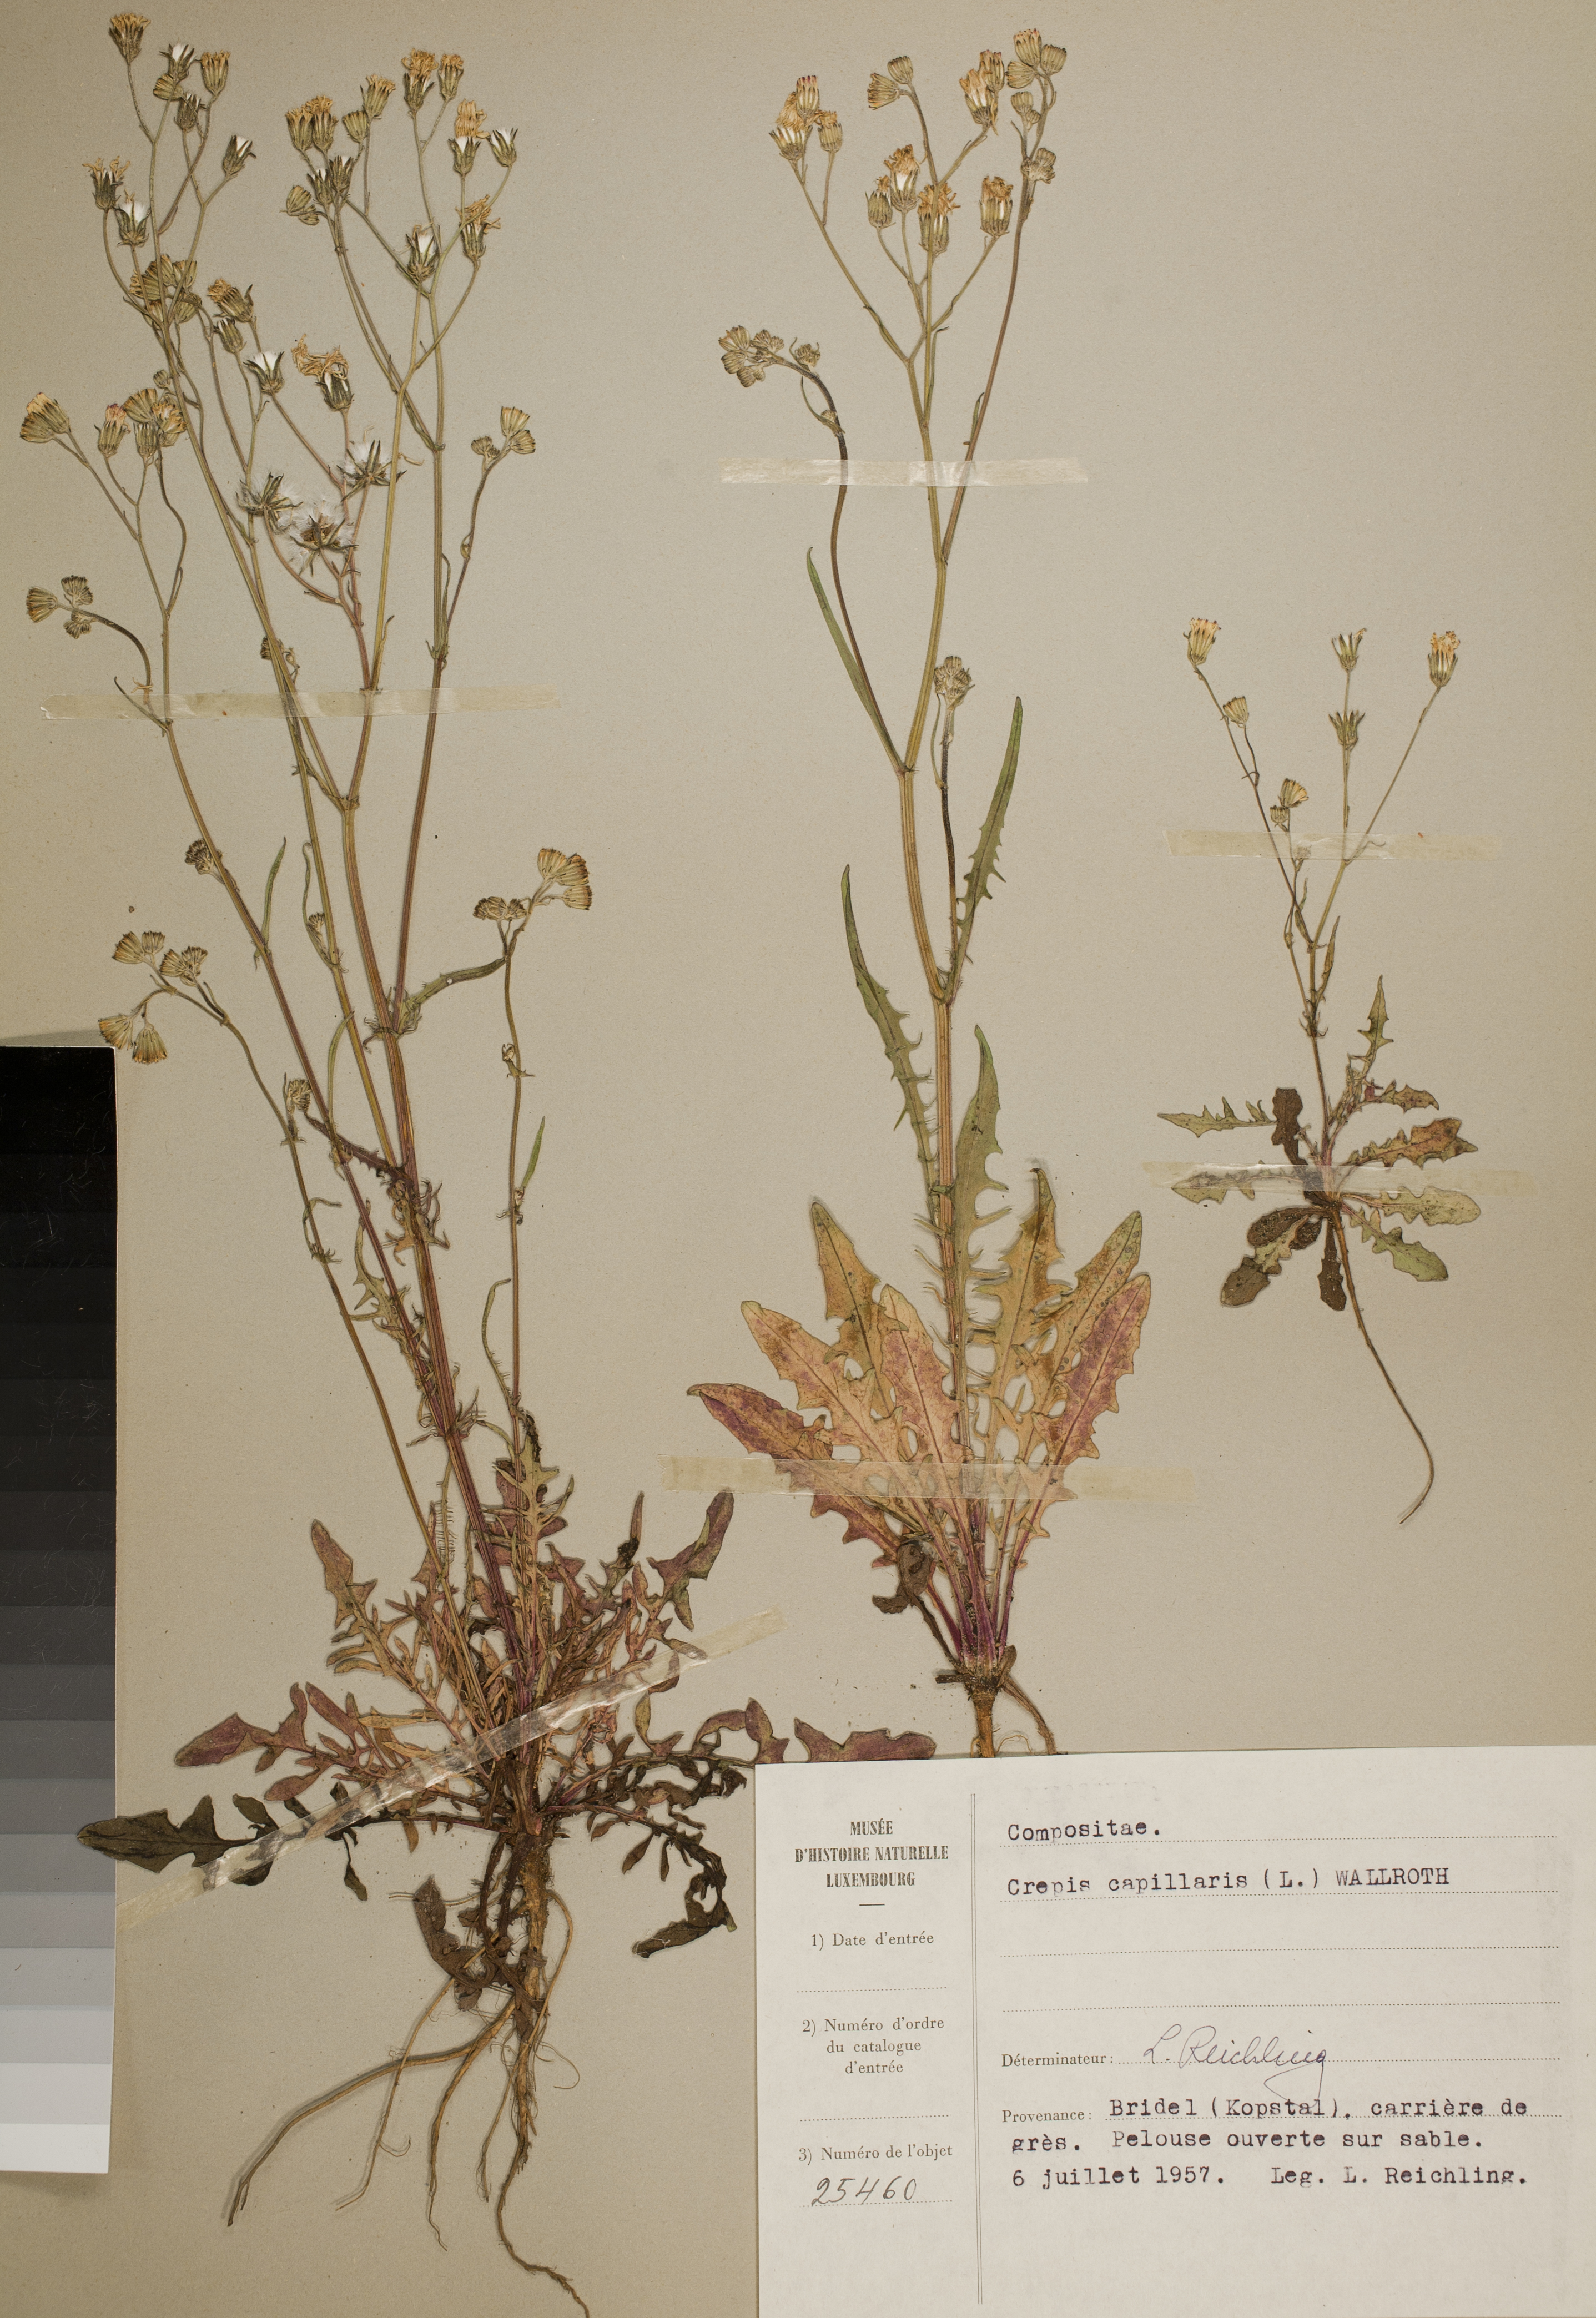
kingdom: Plantae
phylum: Tracheophyta
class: Magnoliopsida
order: Asterales
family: Asteraceae
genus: Crepis
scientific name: Crepis capillaris
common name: Smooth hawksbeard
